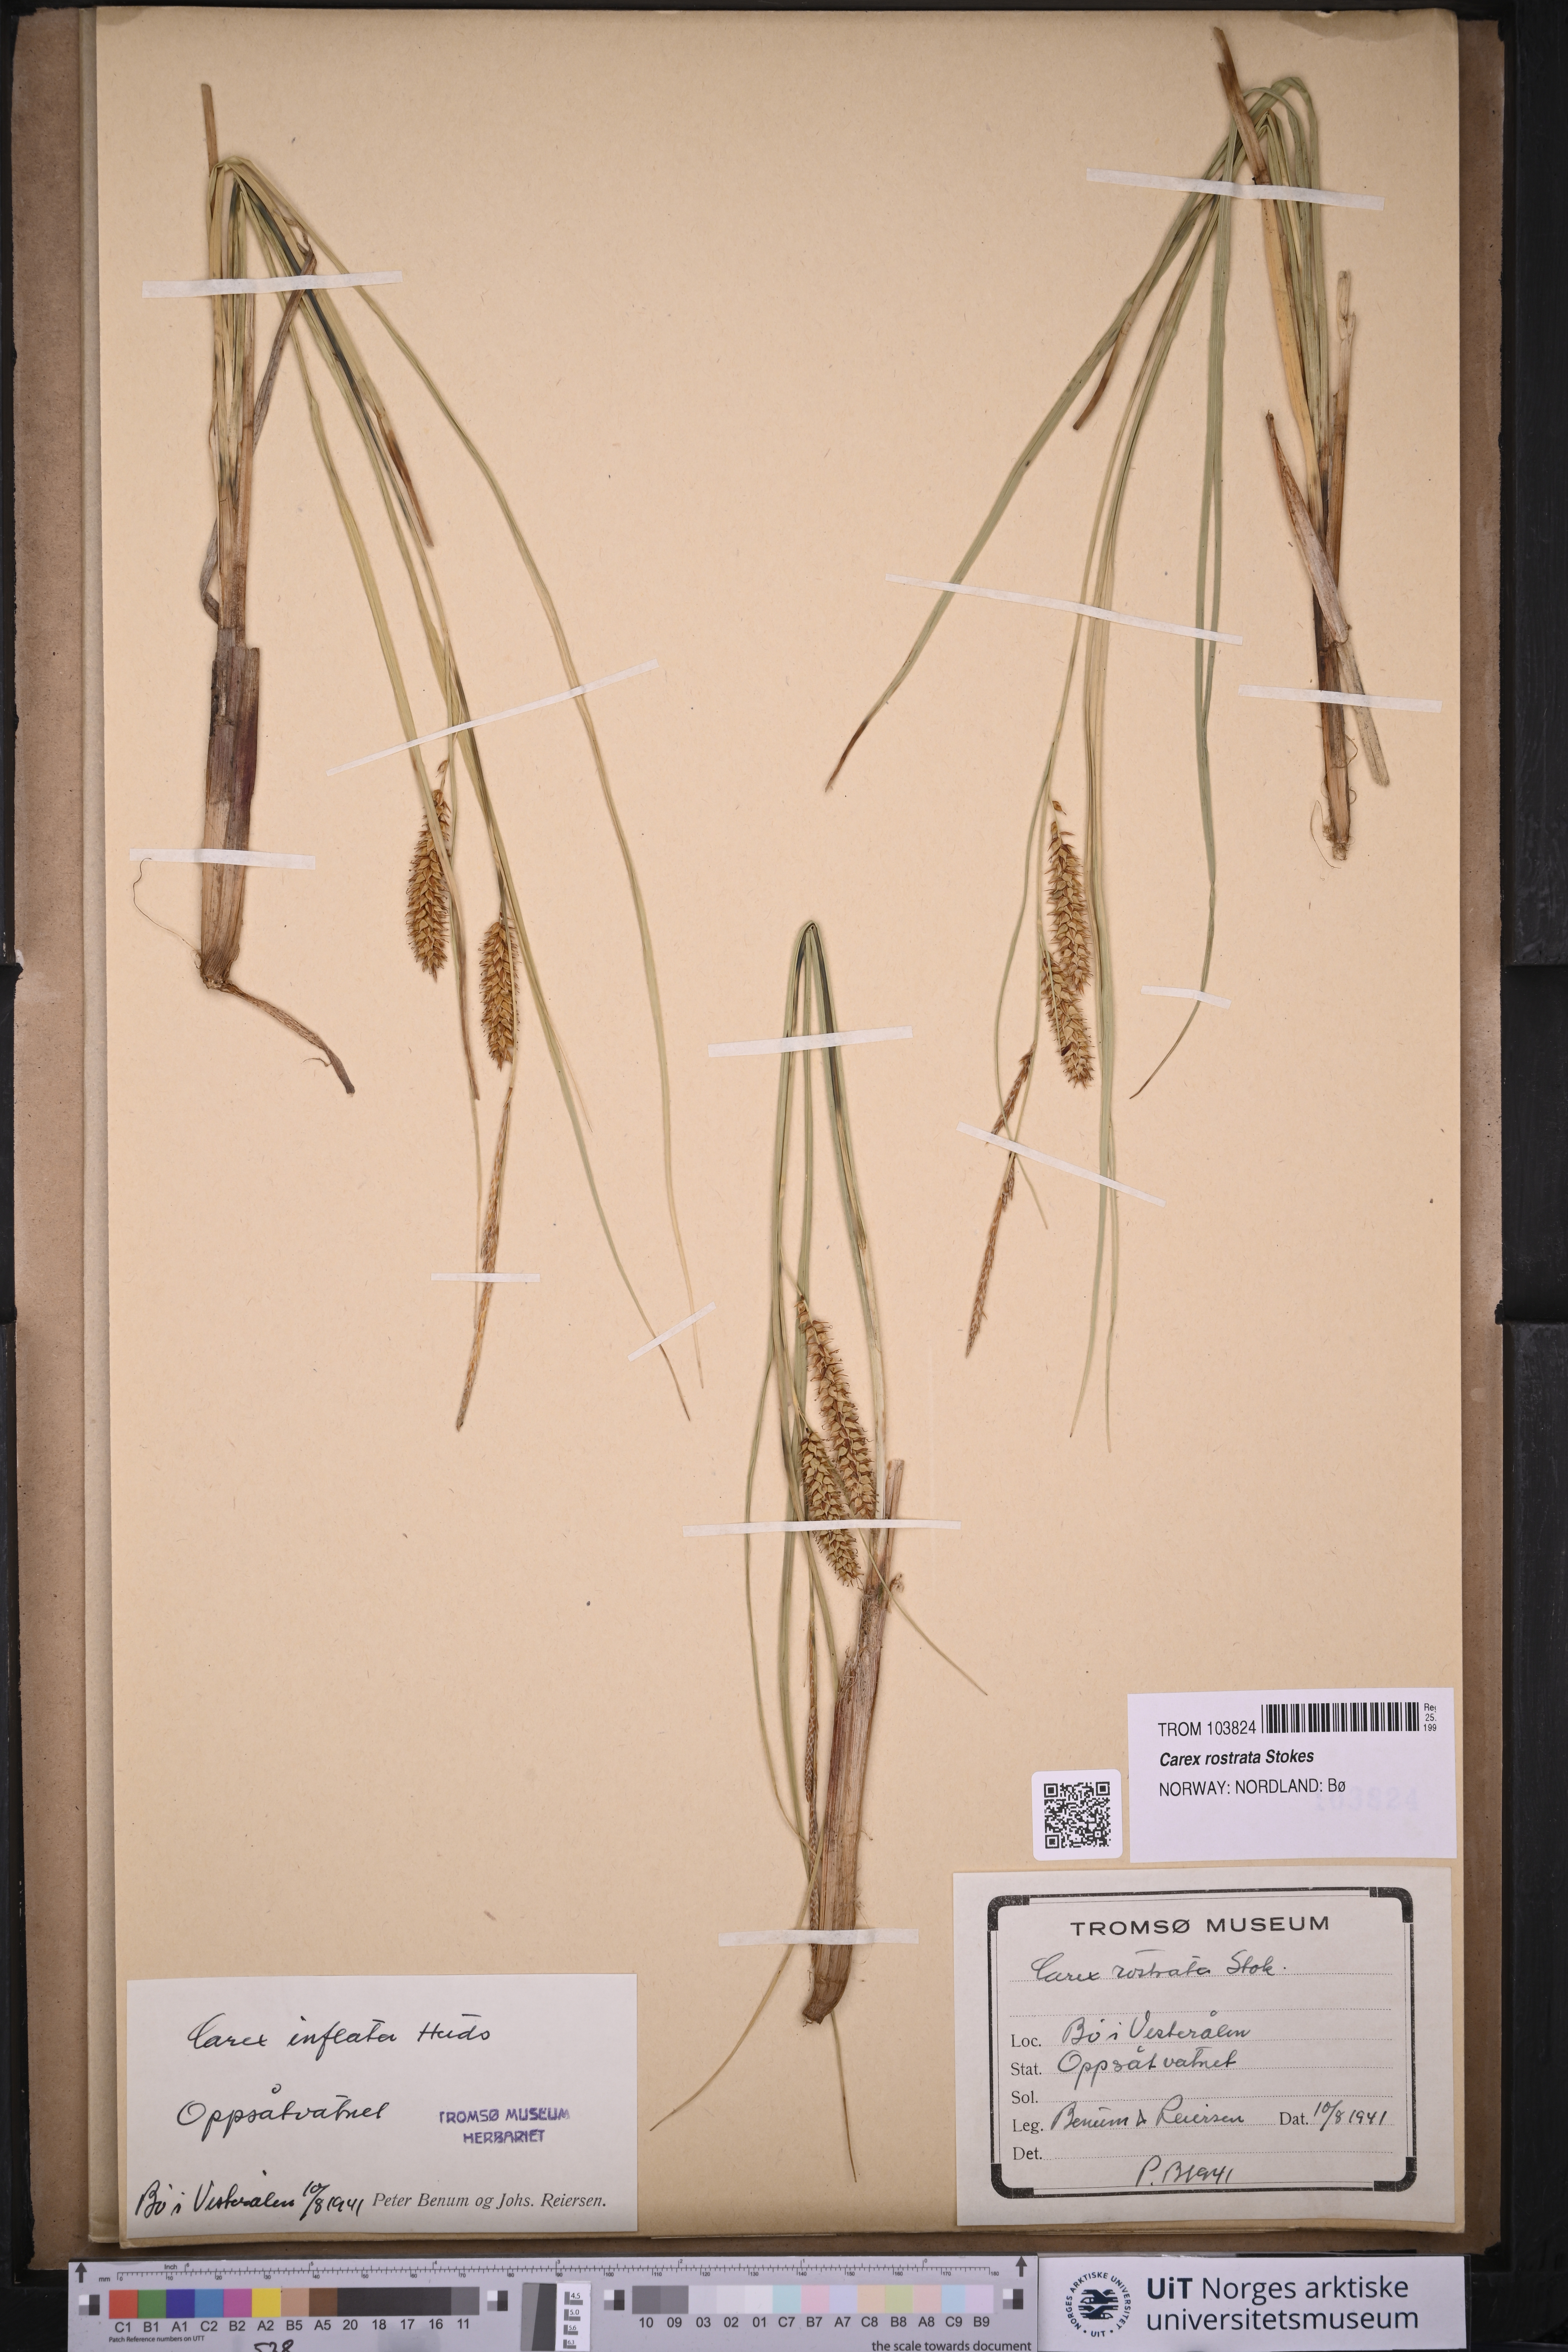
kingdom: Plantae
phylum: Tracheophyta
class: Liliopsida
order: Poales
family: Cyperaceae
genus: Carex
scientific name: Carex rostrata
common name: Bottle sedge
